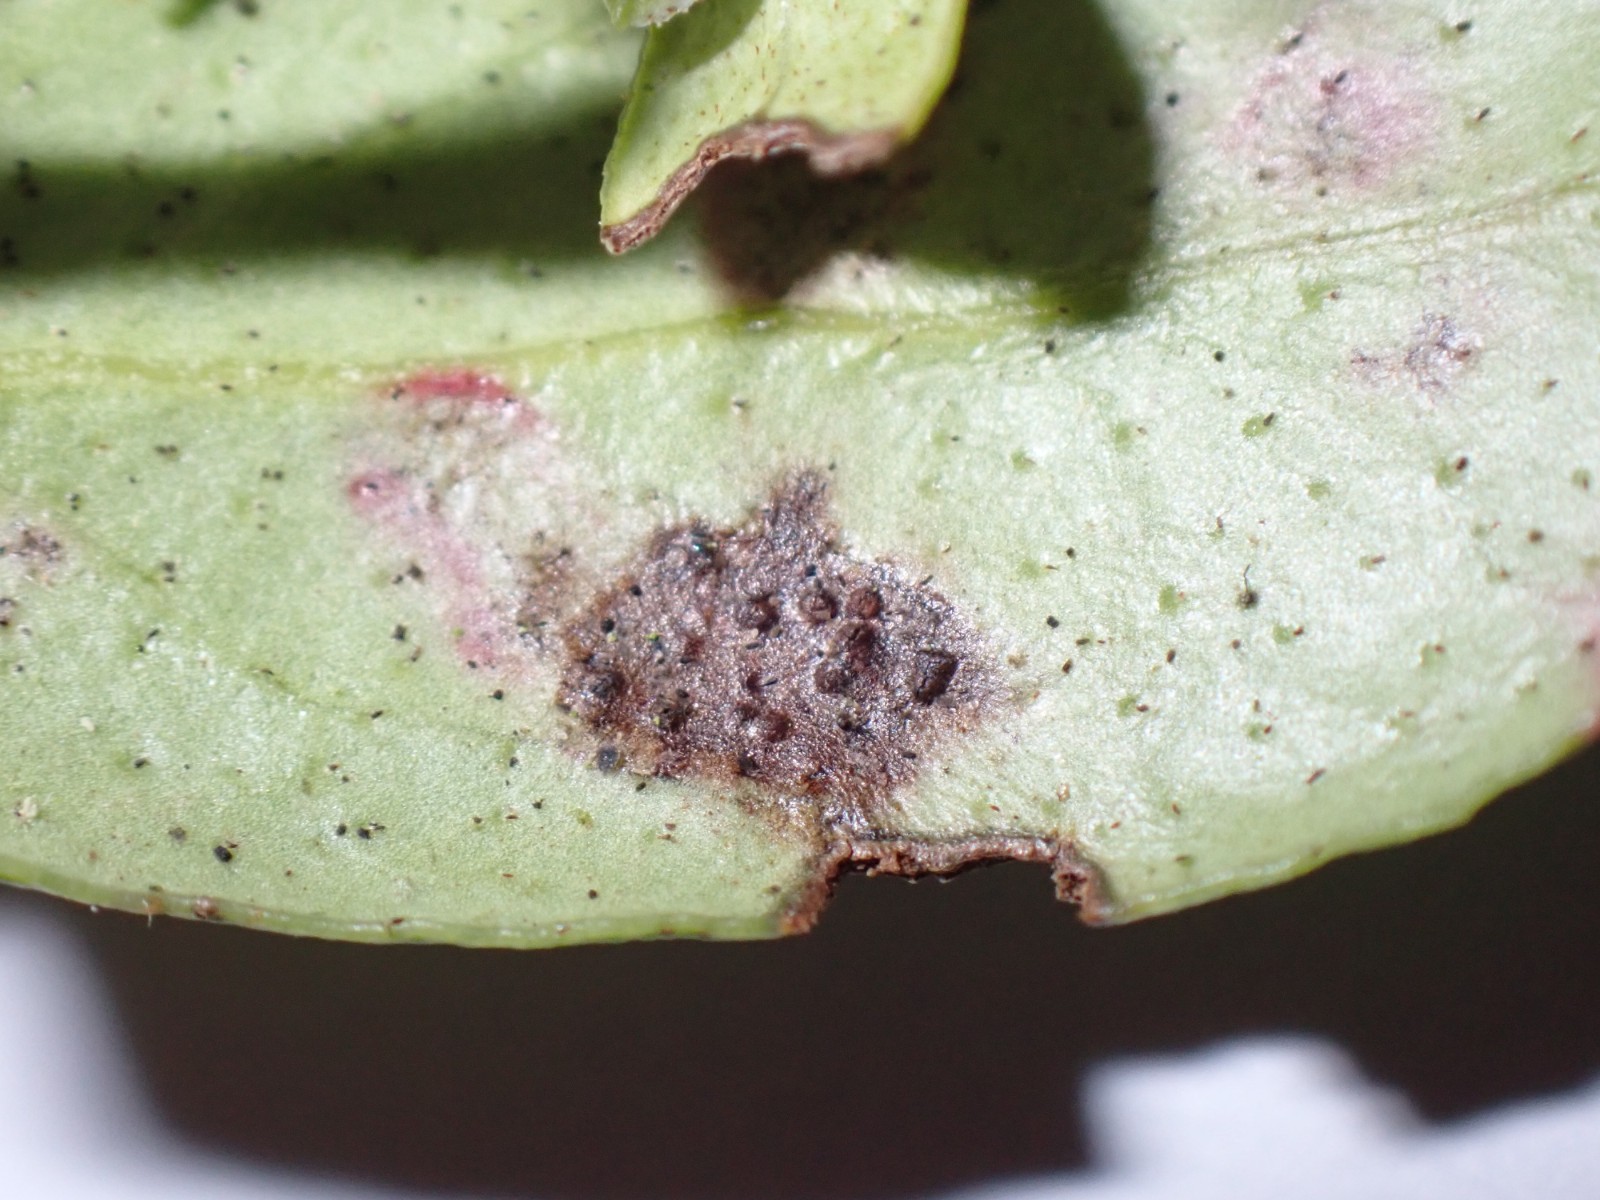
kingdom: Fungi
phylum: Basidiomycota
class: Pucciniomycetes
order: Pucciniales
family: Pucciniastraceae
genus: Naohidemyces
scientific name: Naohidemyces vaccinii
